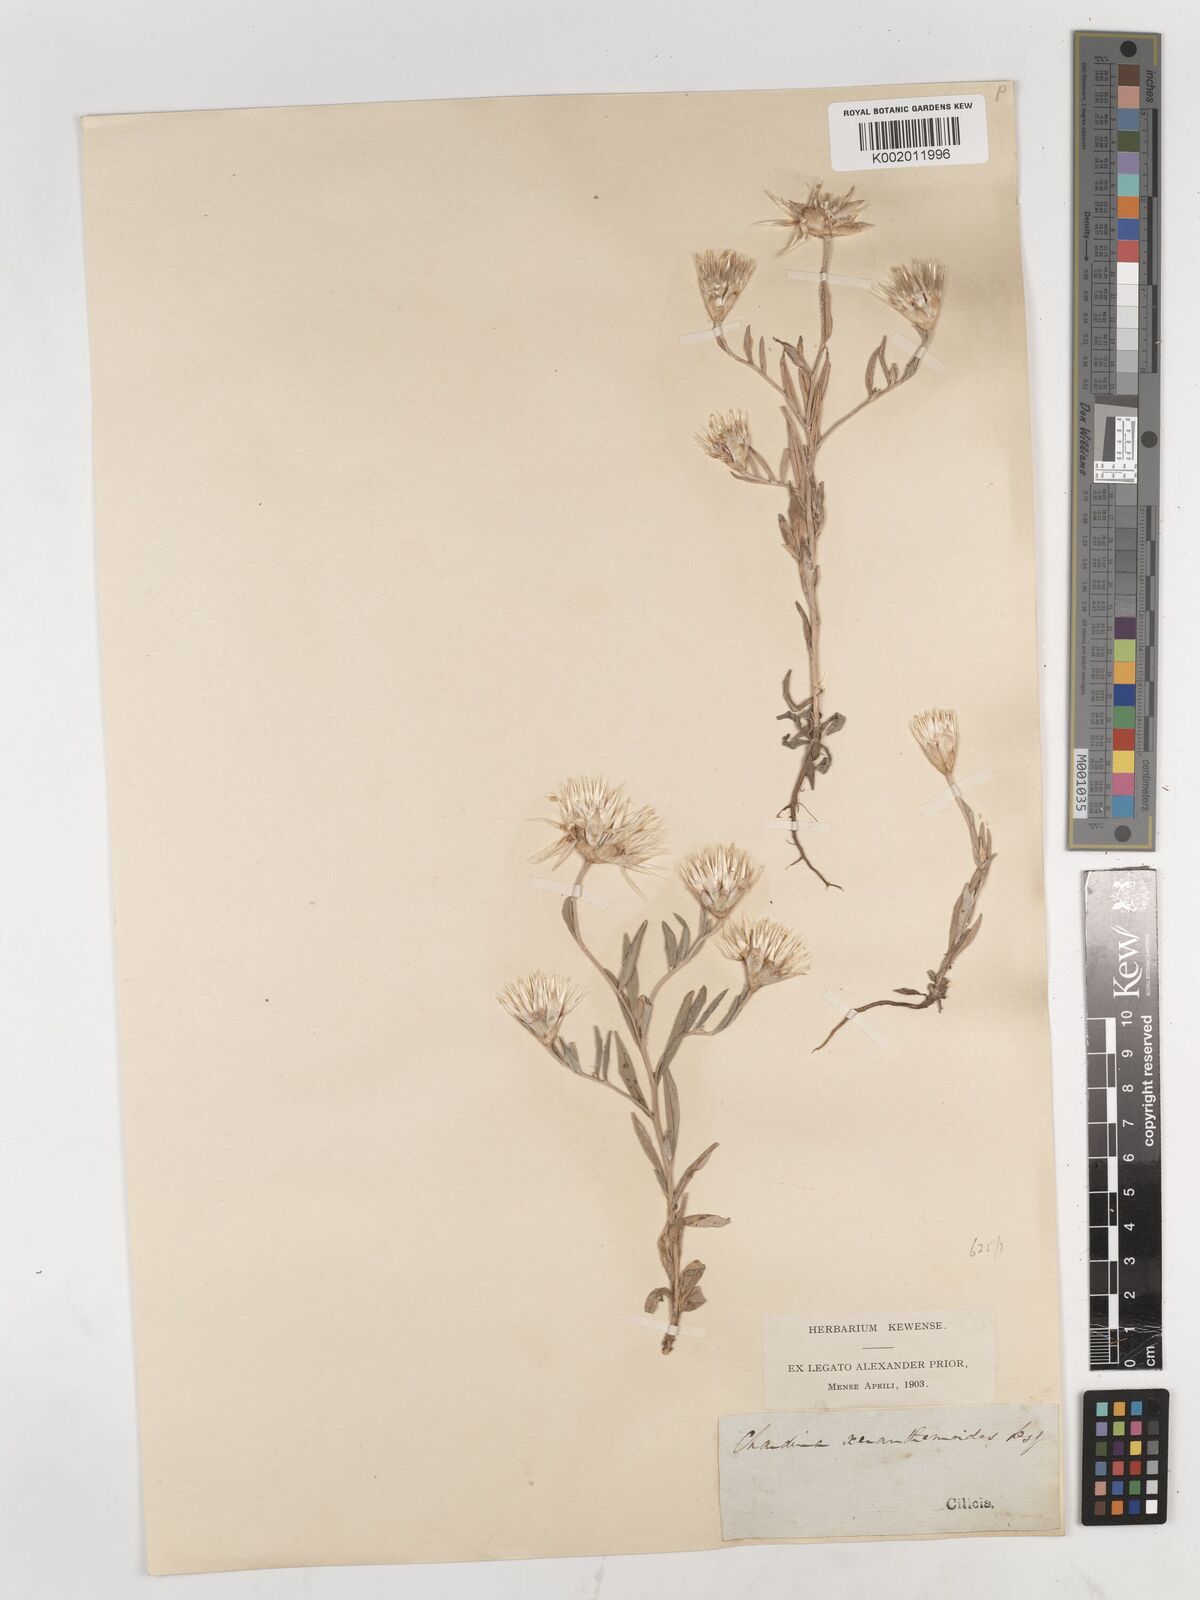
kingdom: Plantae
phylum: Tracheophyta
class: Magnoliopsida
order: Asterales
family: Asteraceae
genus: Chardinia
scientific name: Chardinia orientalis
